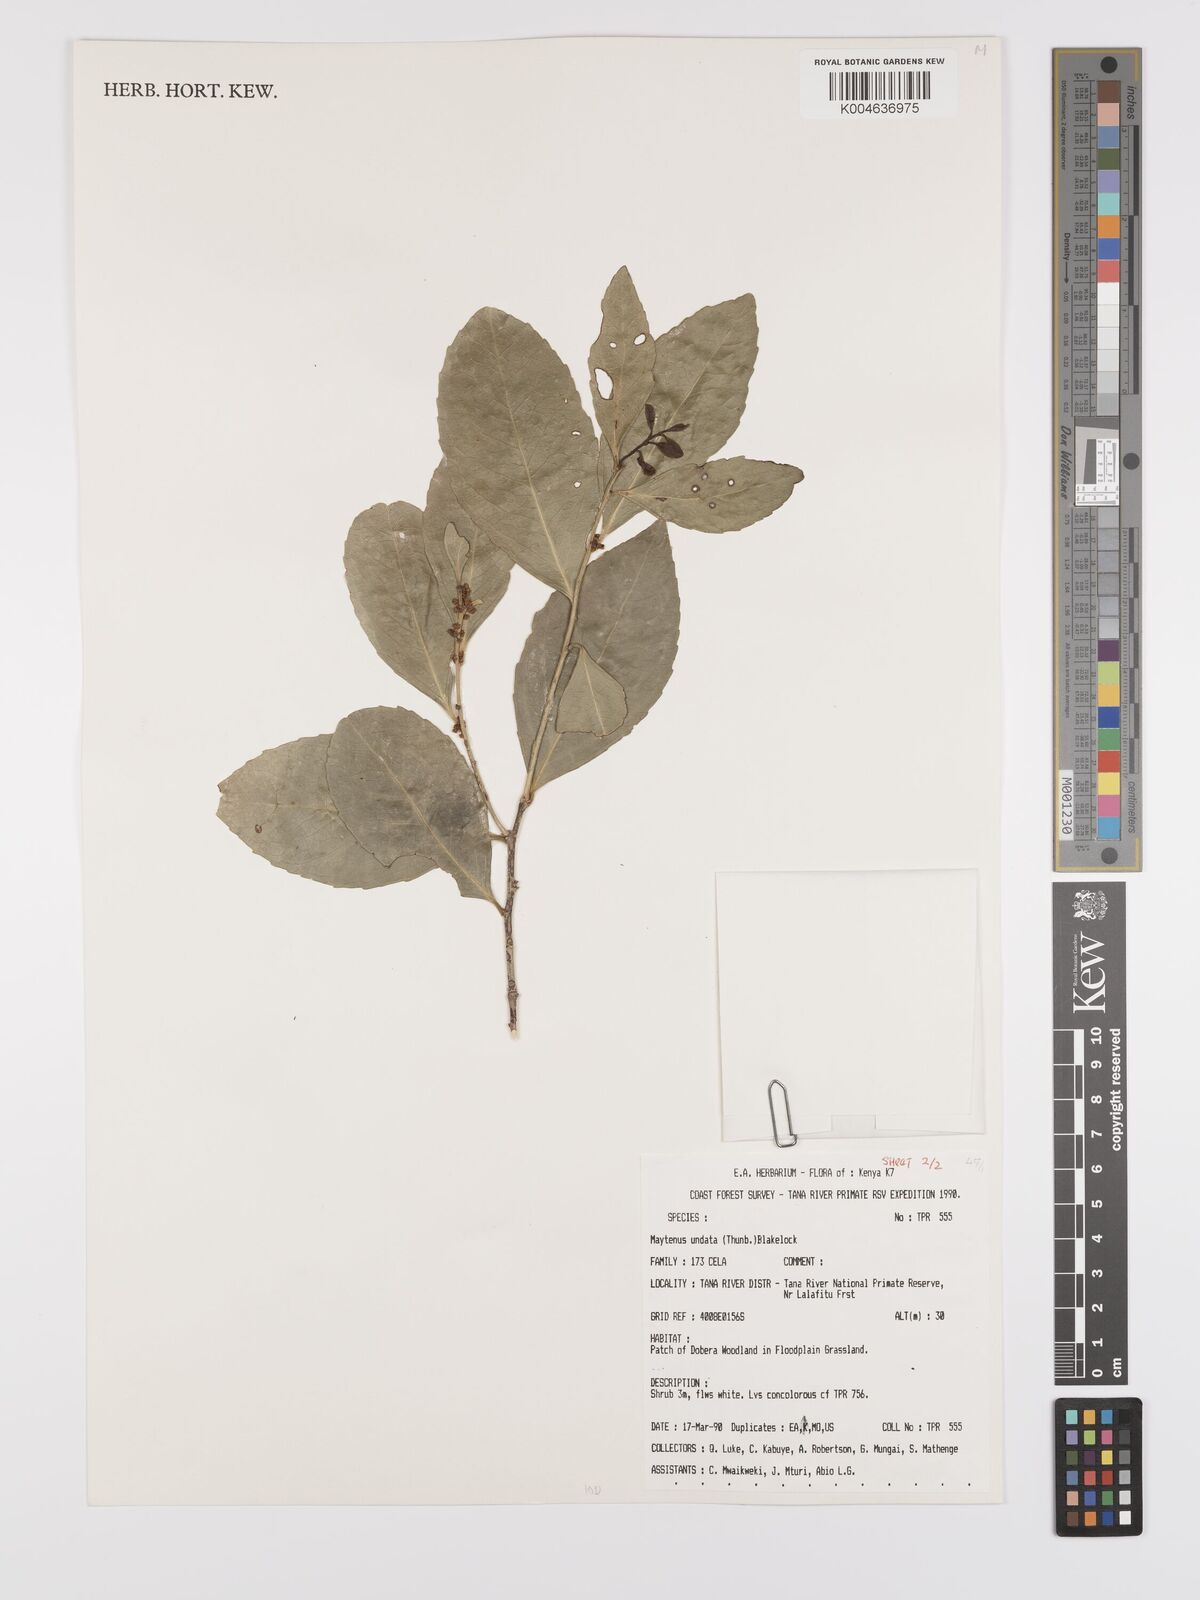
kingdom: Plantae
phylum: Tracheophyta
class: Magnoliopsida
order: Celastrales
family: Celastraceae
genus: Gymnosporia
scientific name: Gymnosporia undata
